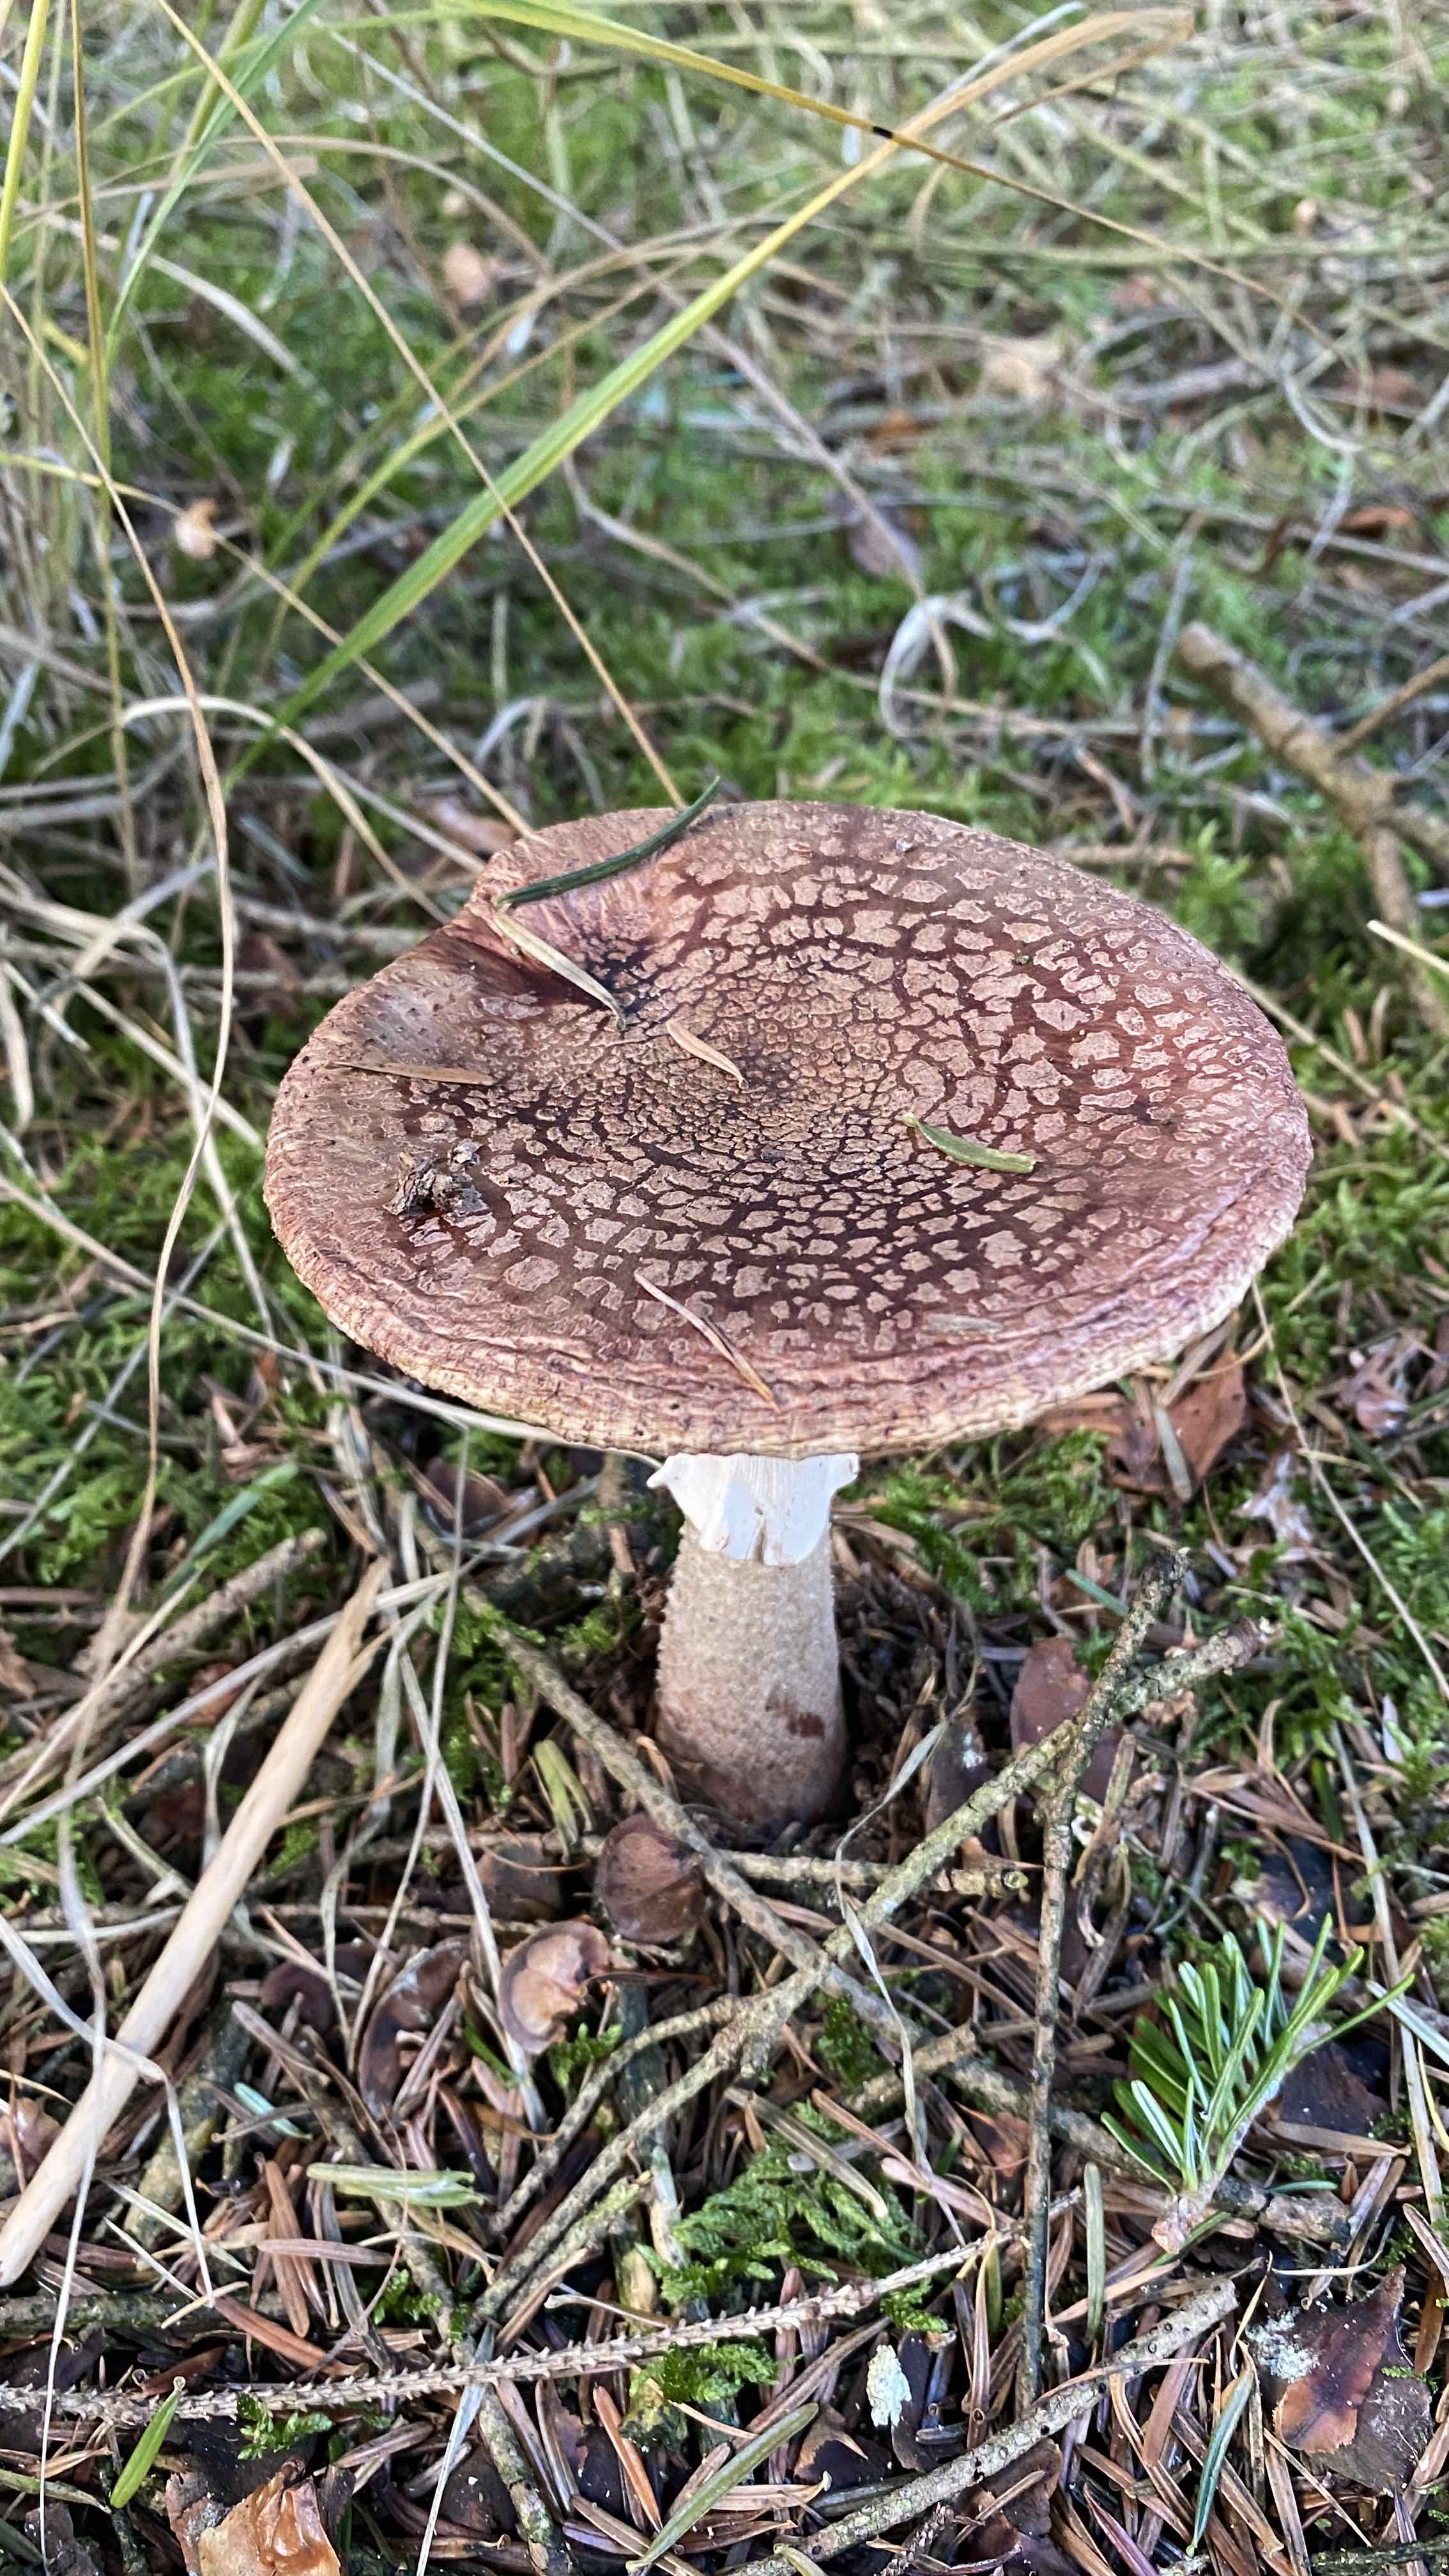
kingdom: Fungi
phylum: Basidiomycota
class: Agaricomycetes
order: Agaricales
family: Amanitaceae
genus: Amanita
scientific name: Amanita rubescens
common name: rødmende fluesvamp
